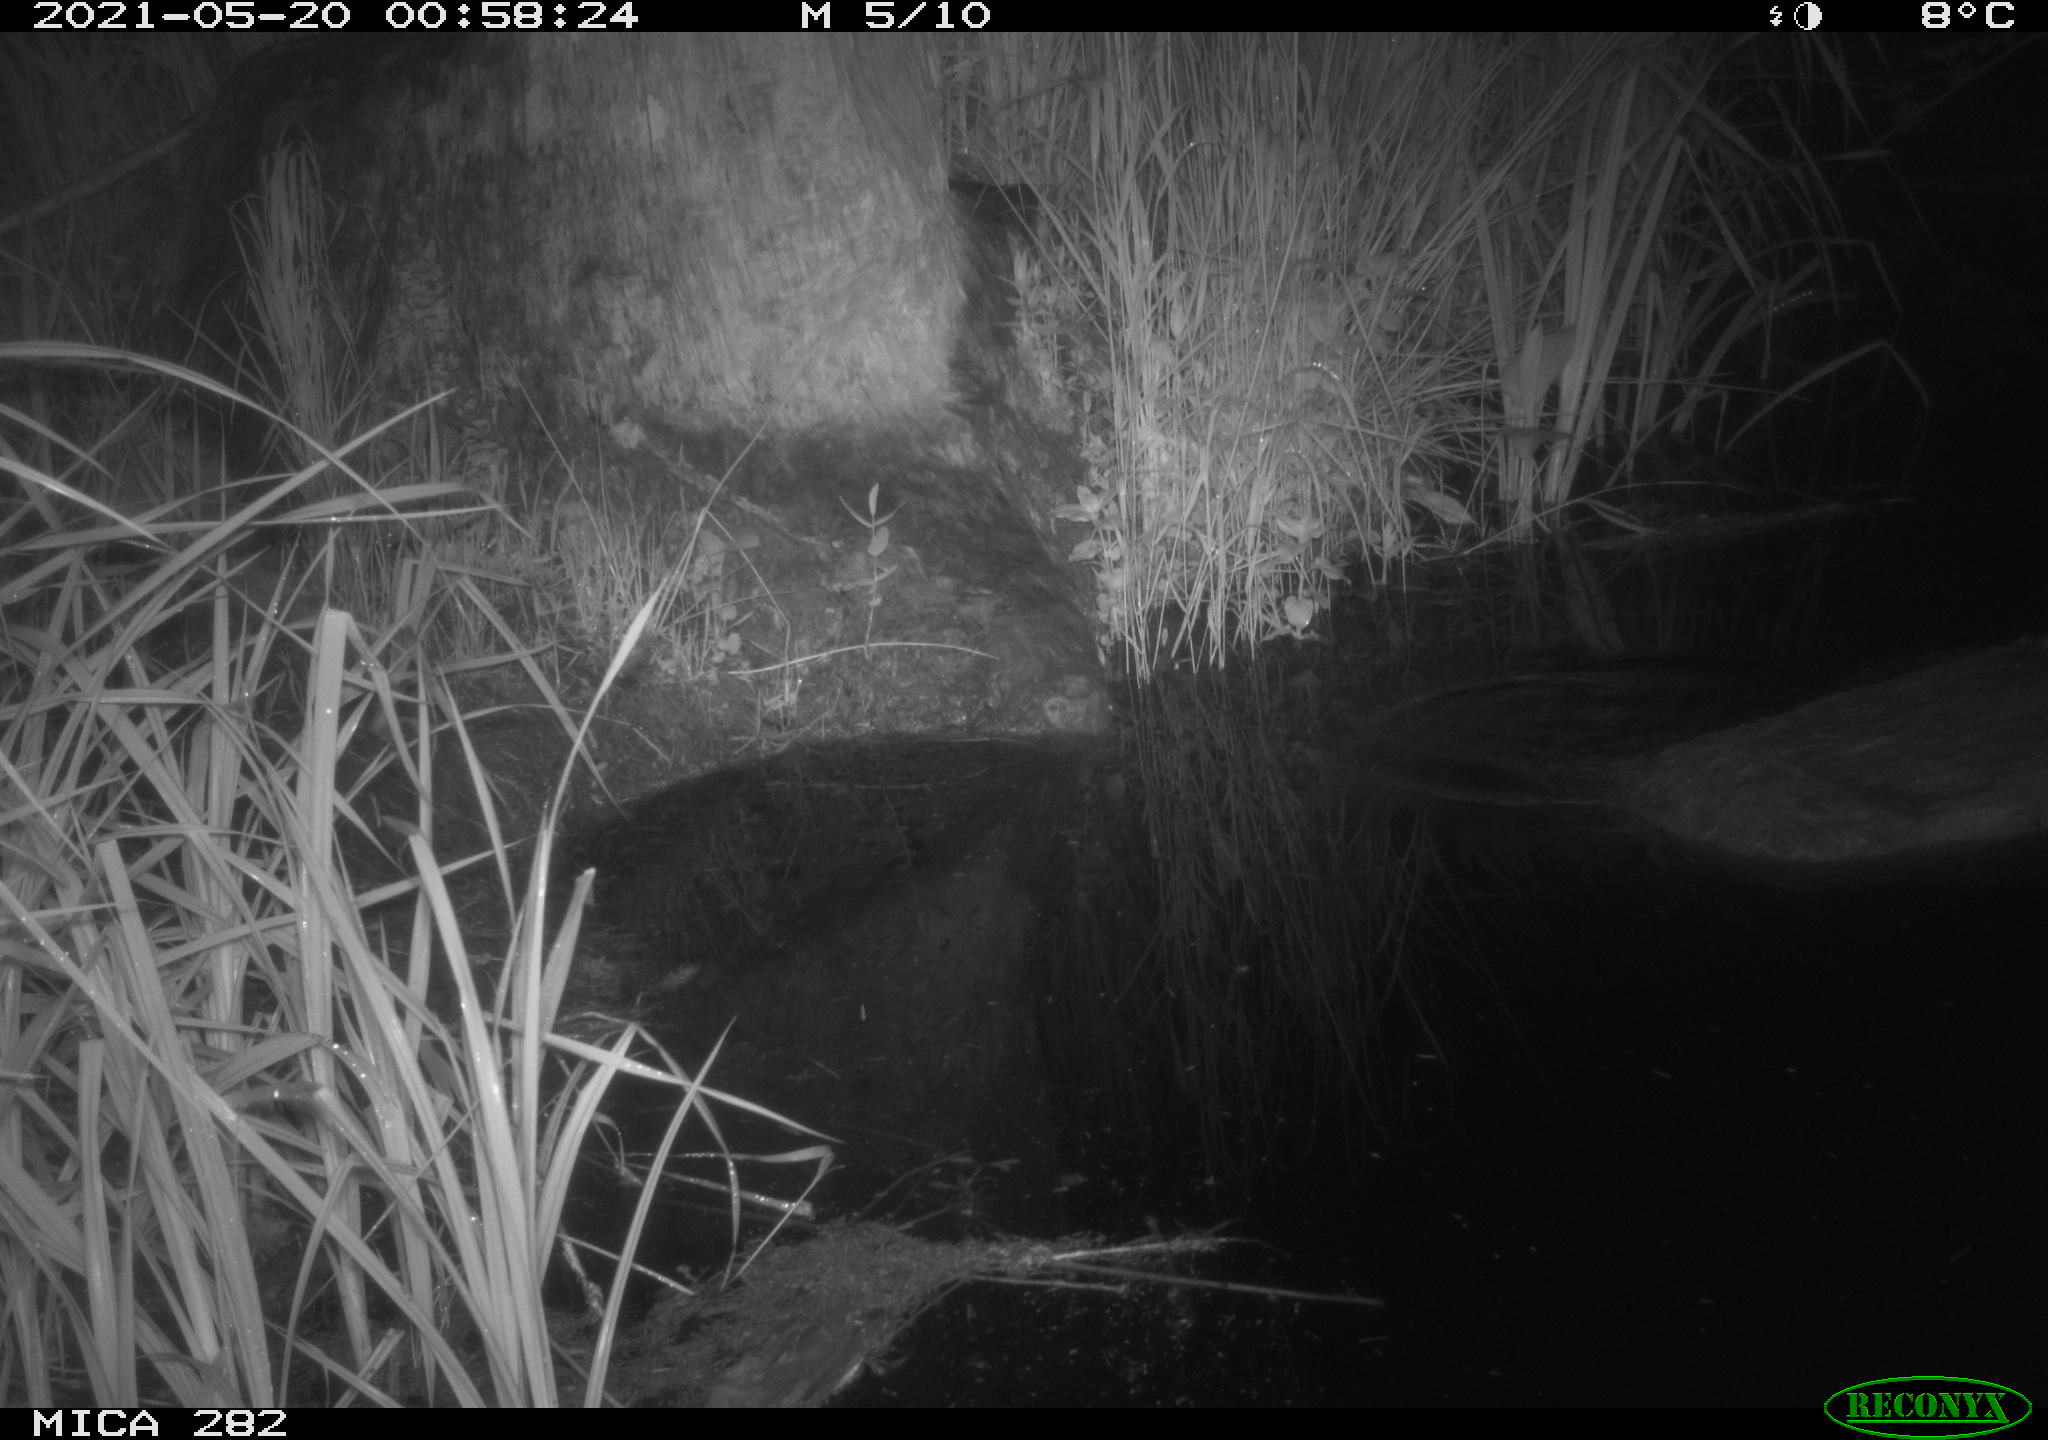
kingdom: Animalia
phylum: Chordata
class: Mammalia
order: Rodentia
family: Muridae
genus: Apodemus
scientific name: Apodemus sylvaticus
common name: Wood mouse
